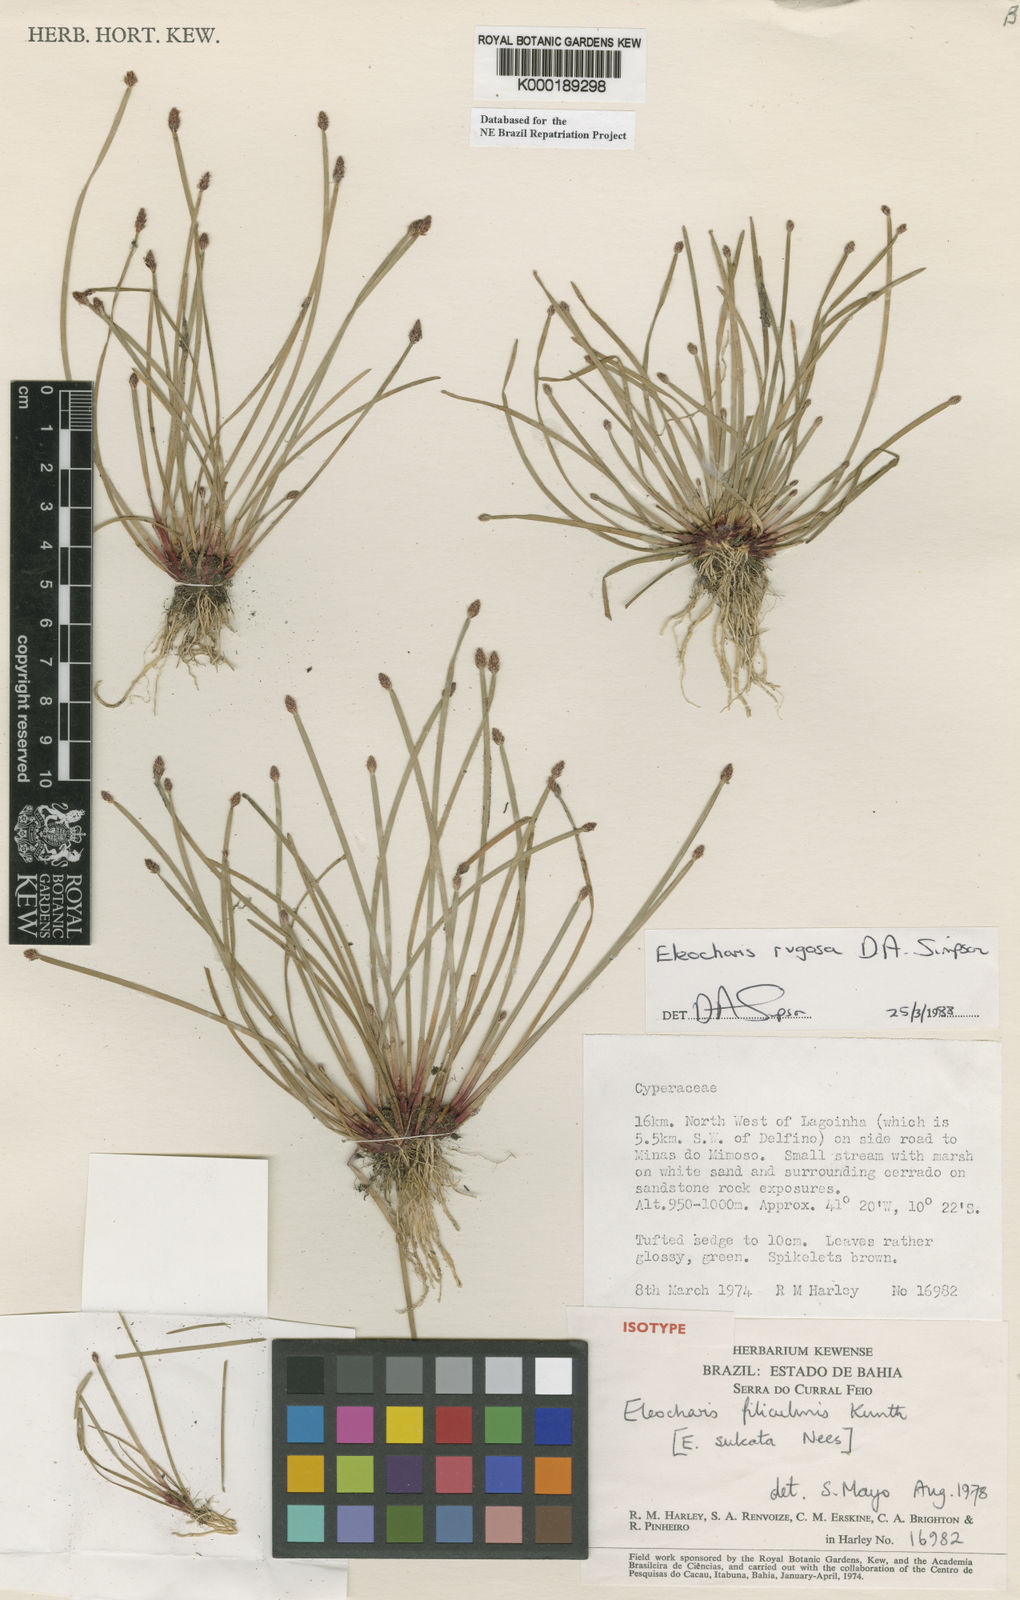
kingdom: Plantae
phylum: Tracheophyta
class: Liliopsida
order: Poales
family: Cyperaceae
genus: Eleocharis
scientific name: Eleocharis rugosa
